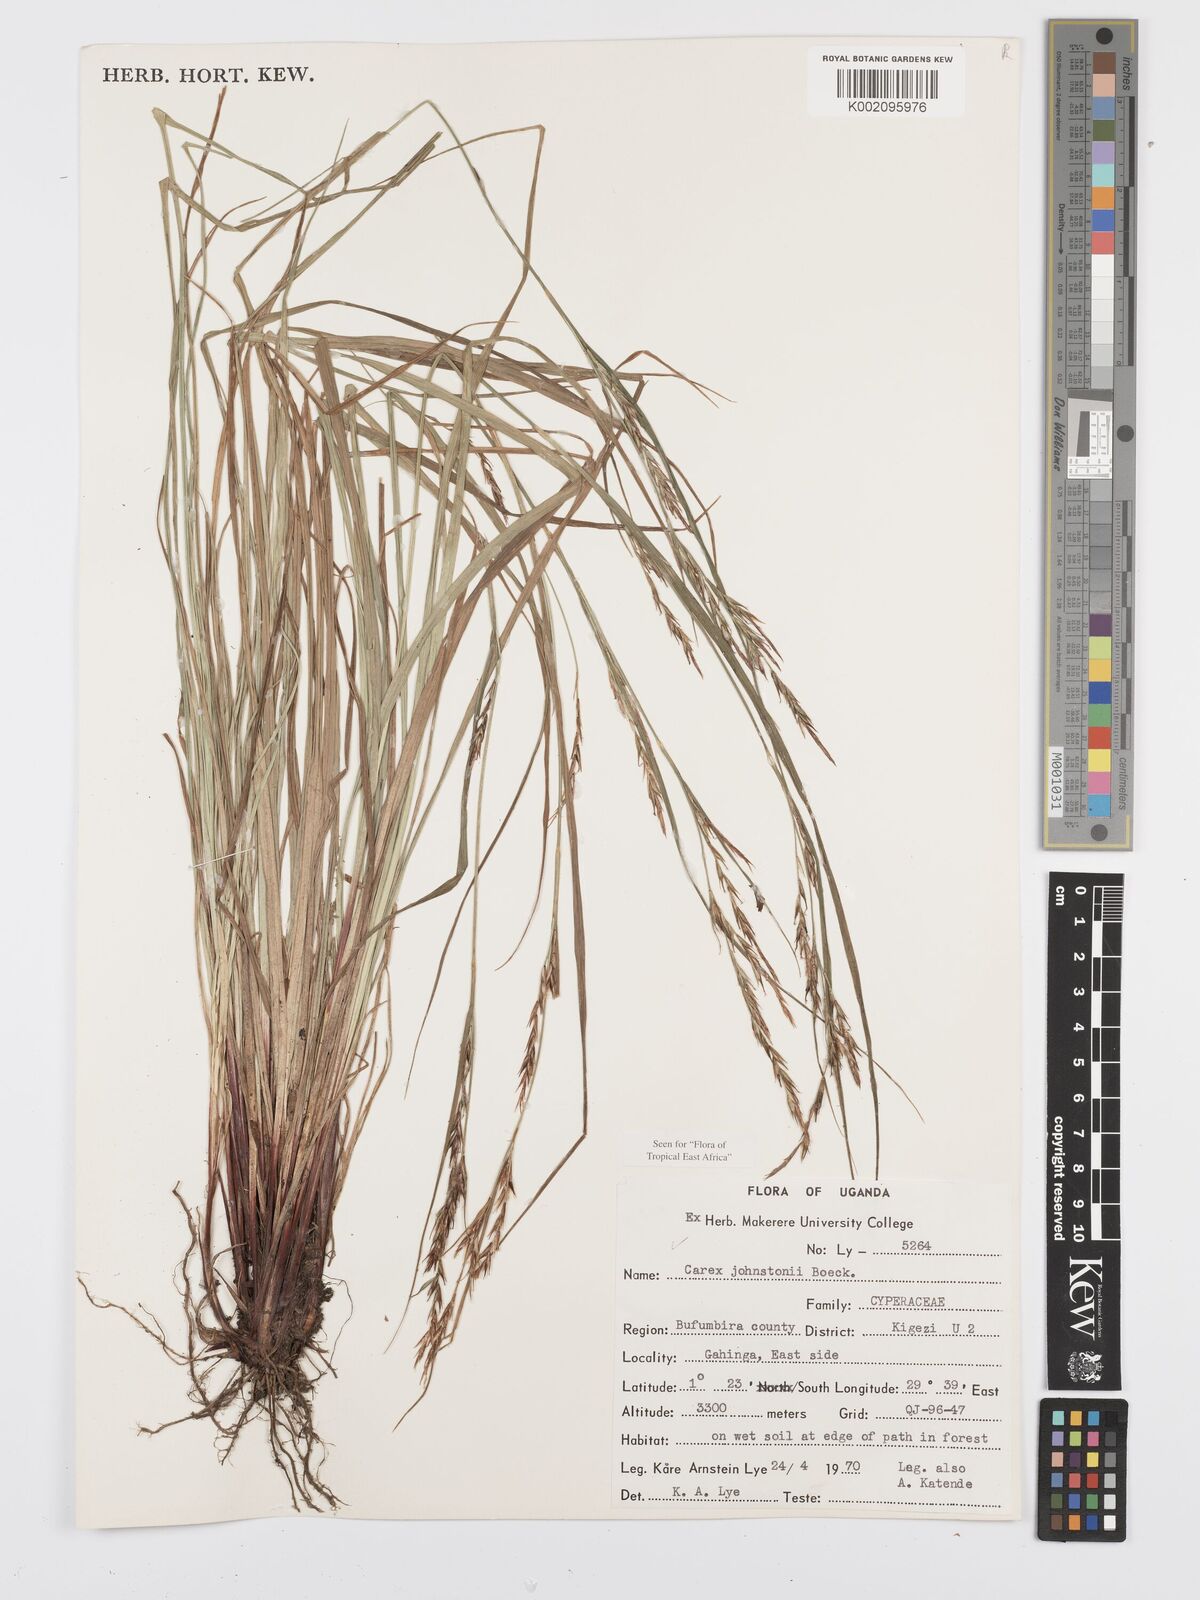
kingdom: Plantae
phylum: Tracheophyta
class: Liliopsida
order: Poales
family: Cyperaceae
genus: Carex
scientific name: Carex johnstonii
